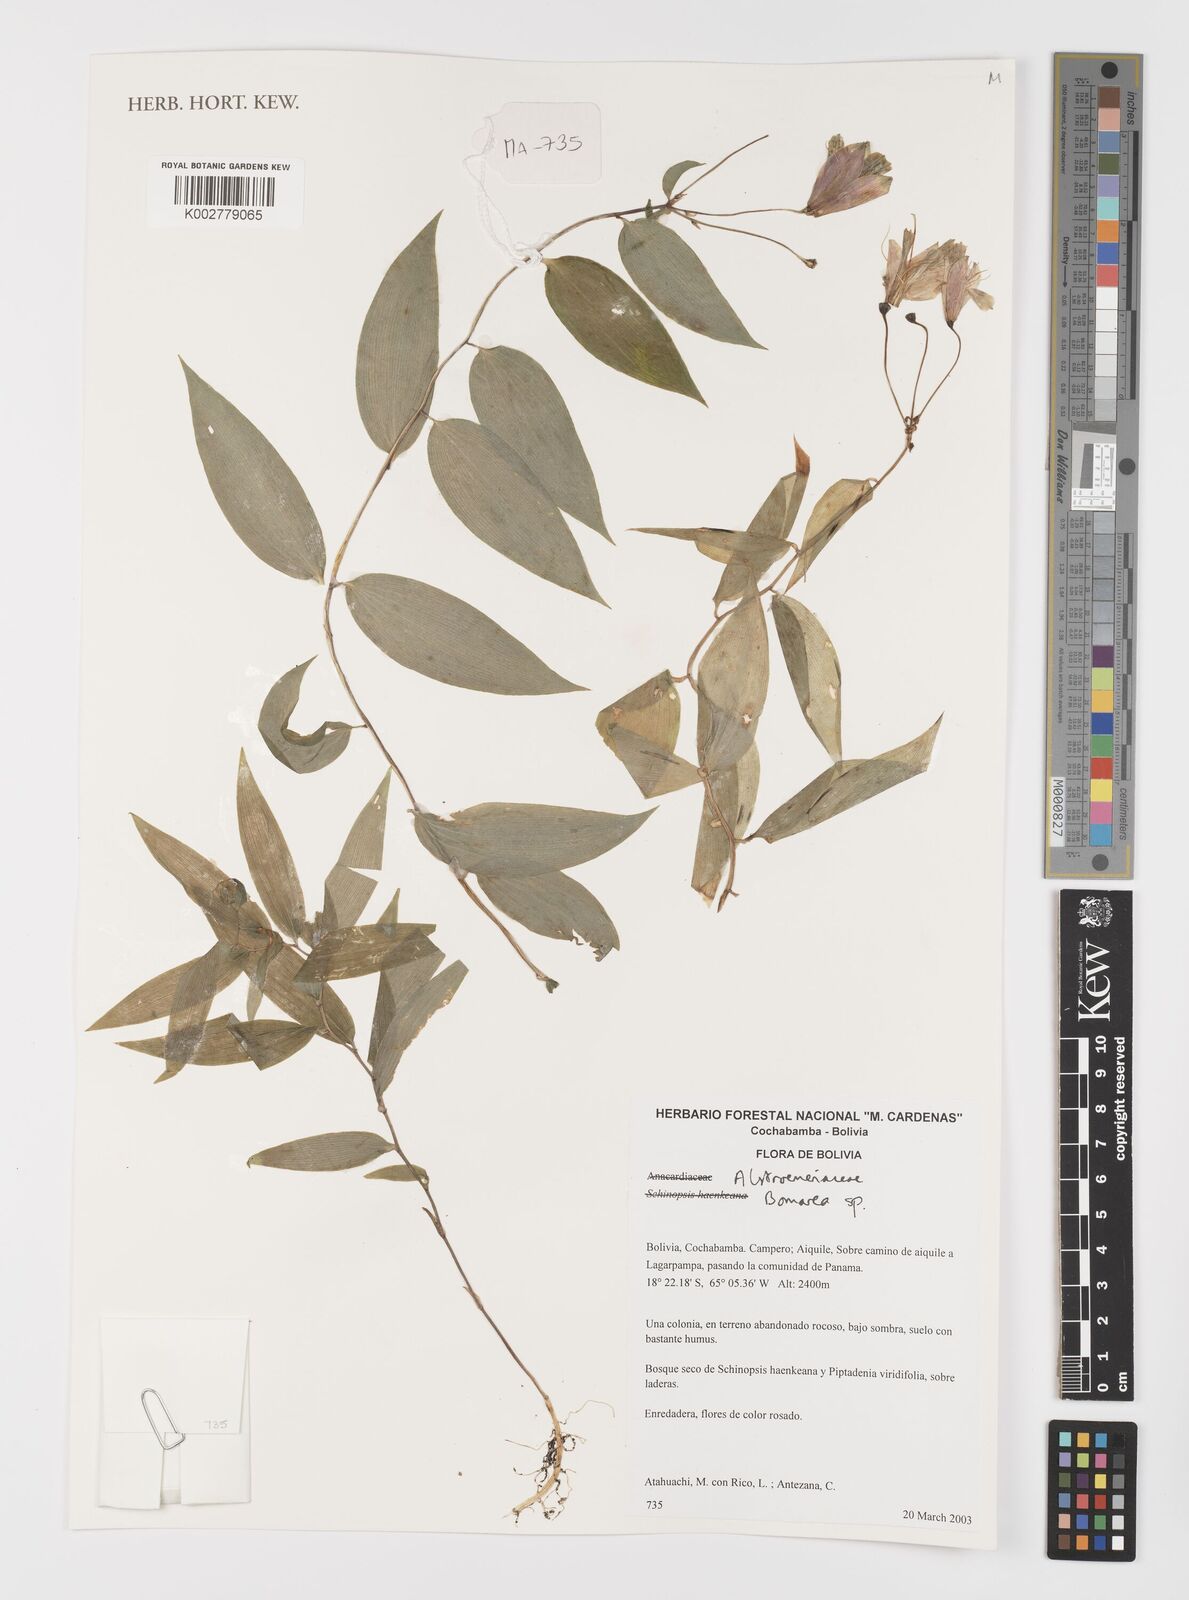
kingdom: Plantae
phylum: Tracheophyta
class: Liliopsida
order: Liliales
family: Alstroemeriaceae
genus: Bomarea
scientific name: Bomarea
